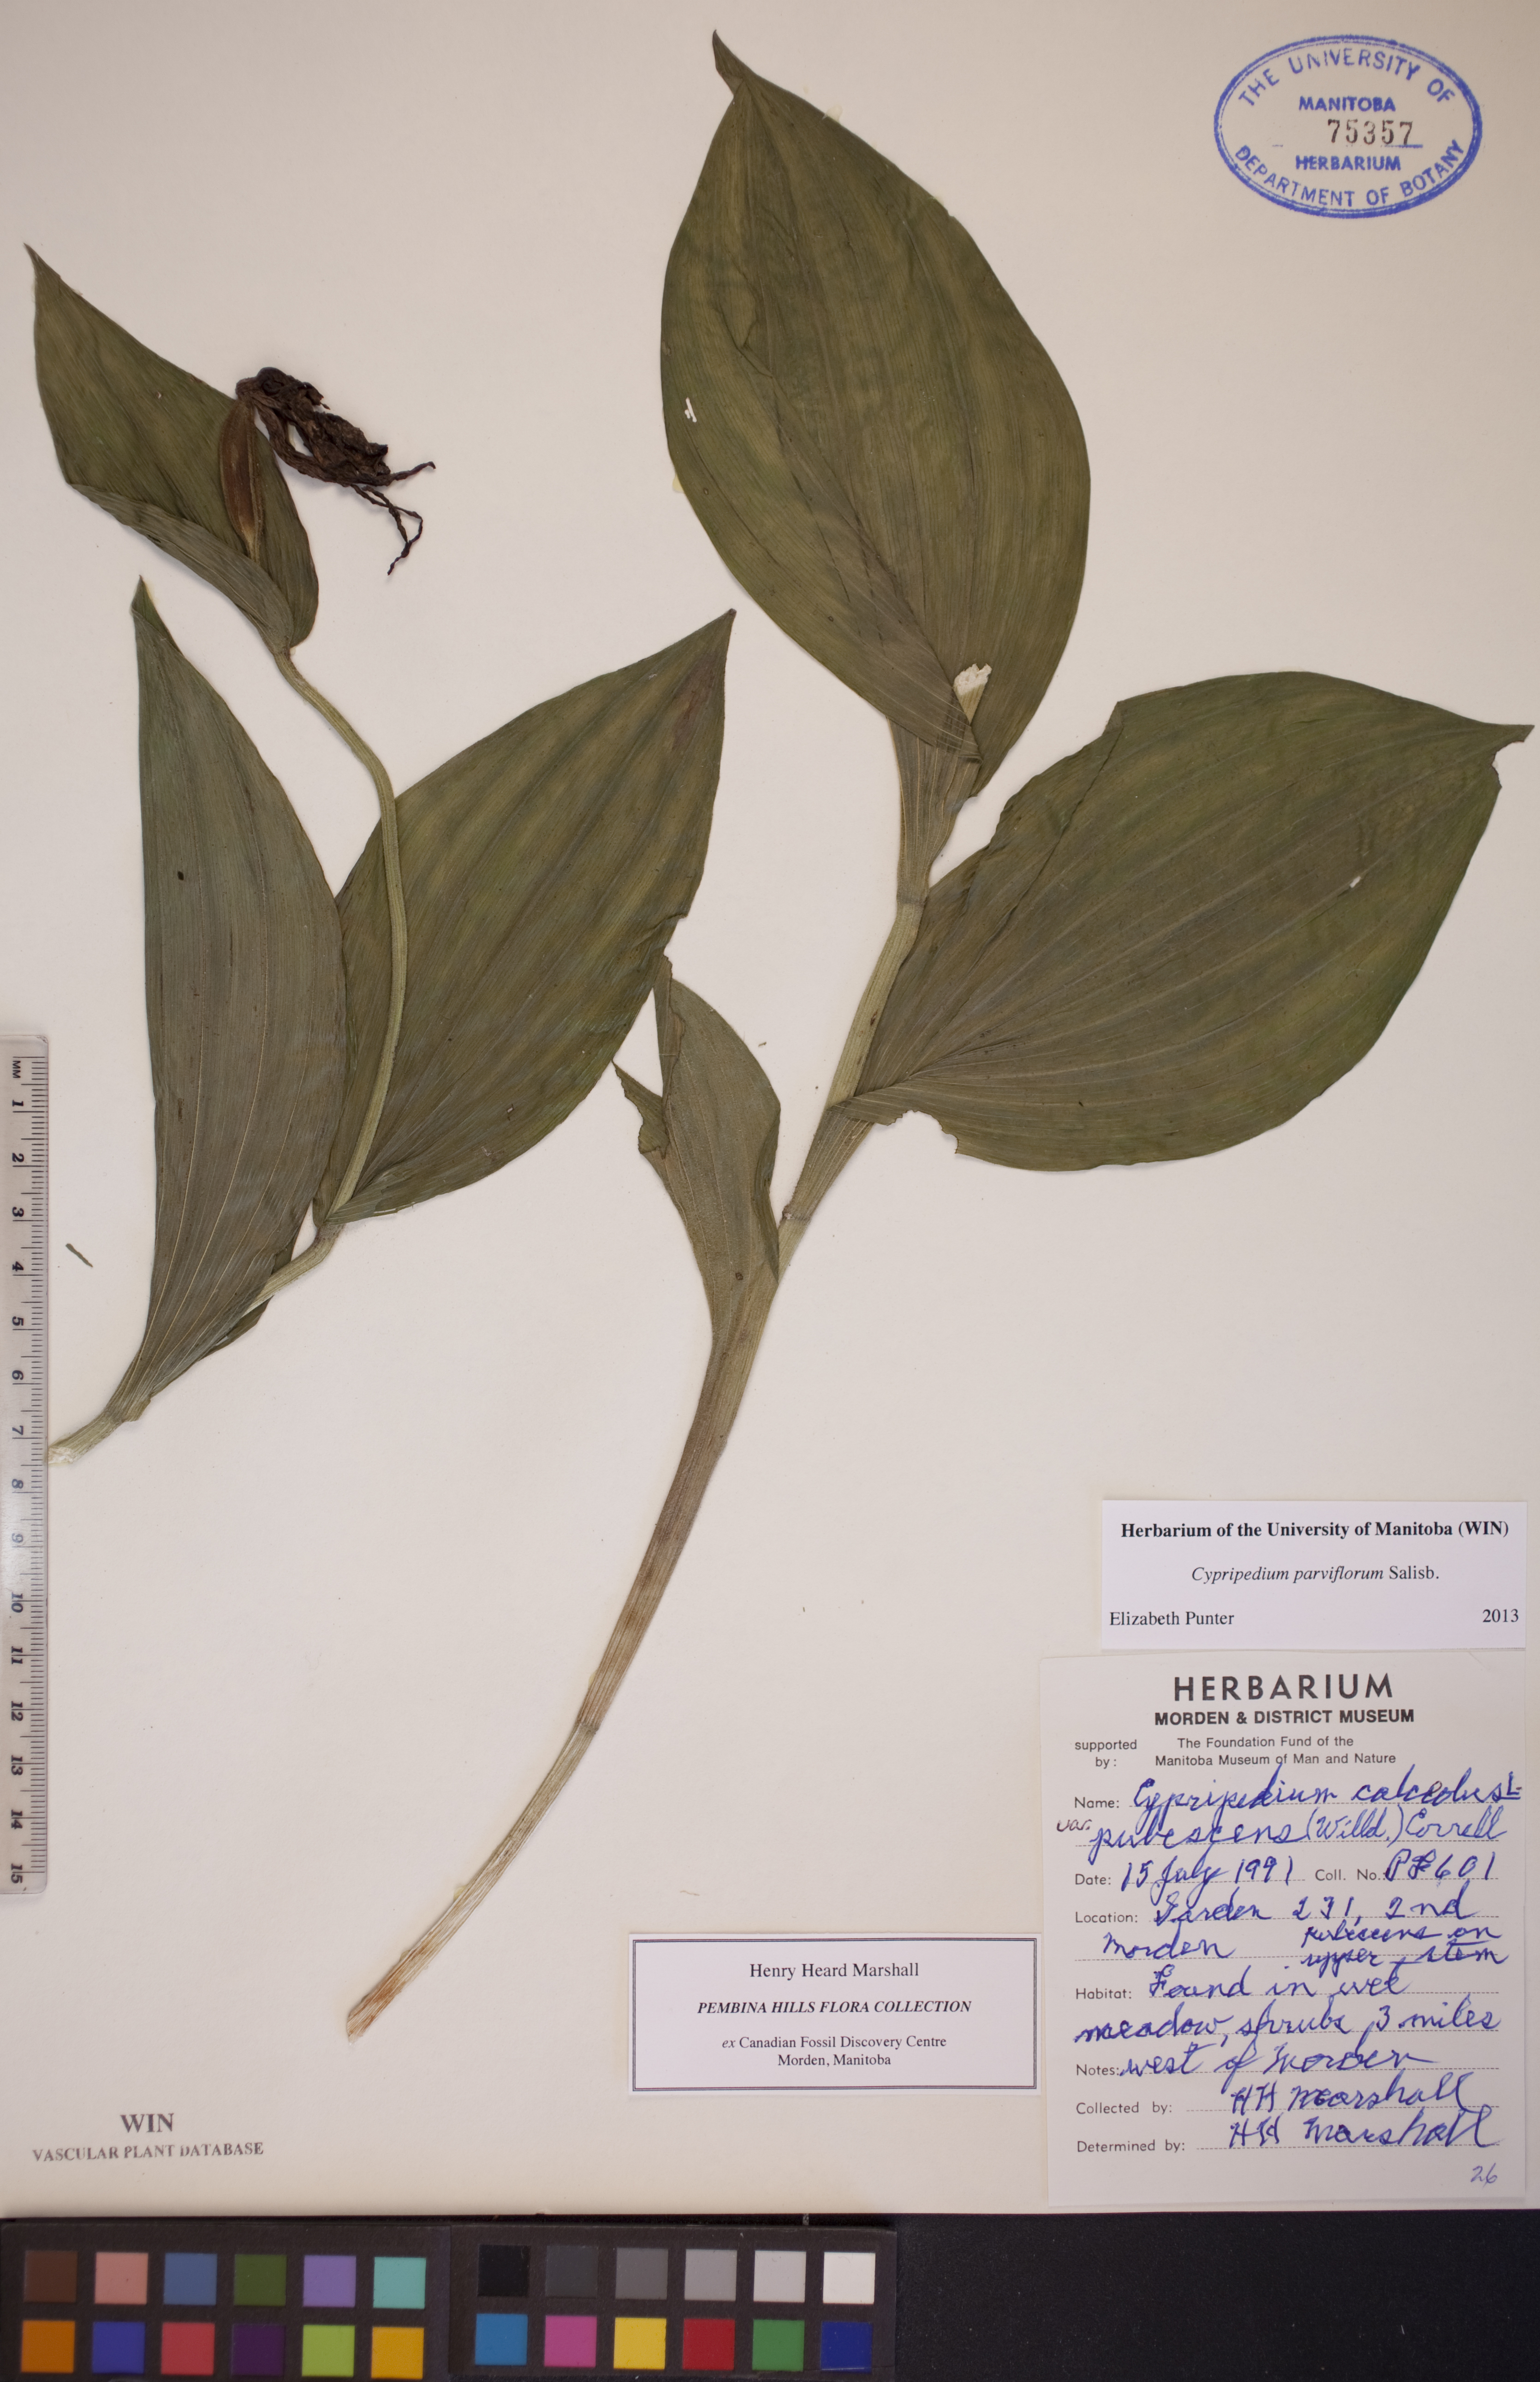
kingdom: Plantae
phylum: Tracheophyta
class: Liliopsida
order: Asparagales
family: Orchidaceae
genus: Cypripedium
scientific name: Cypripedium parviflorum
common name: American yellow lady's-slipper
